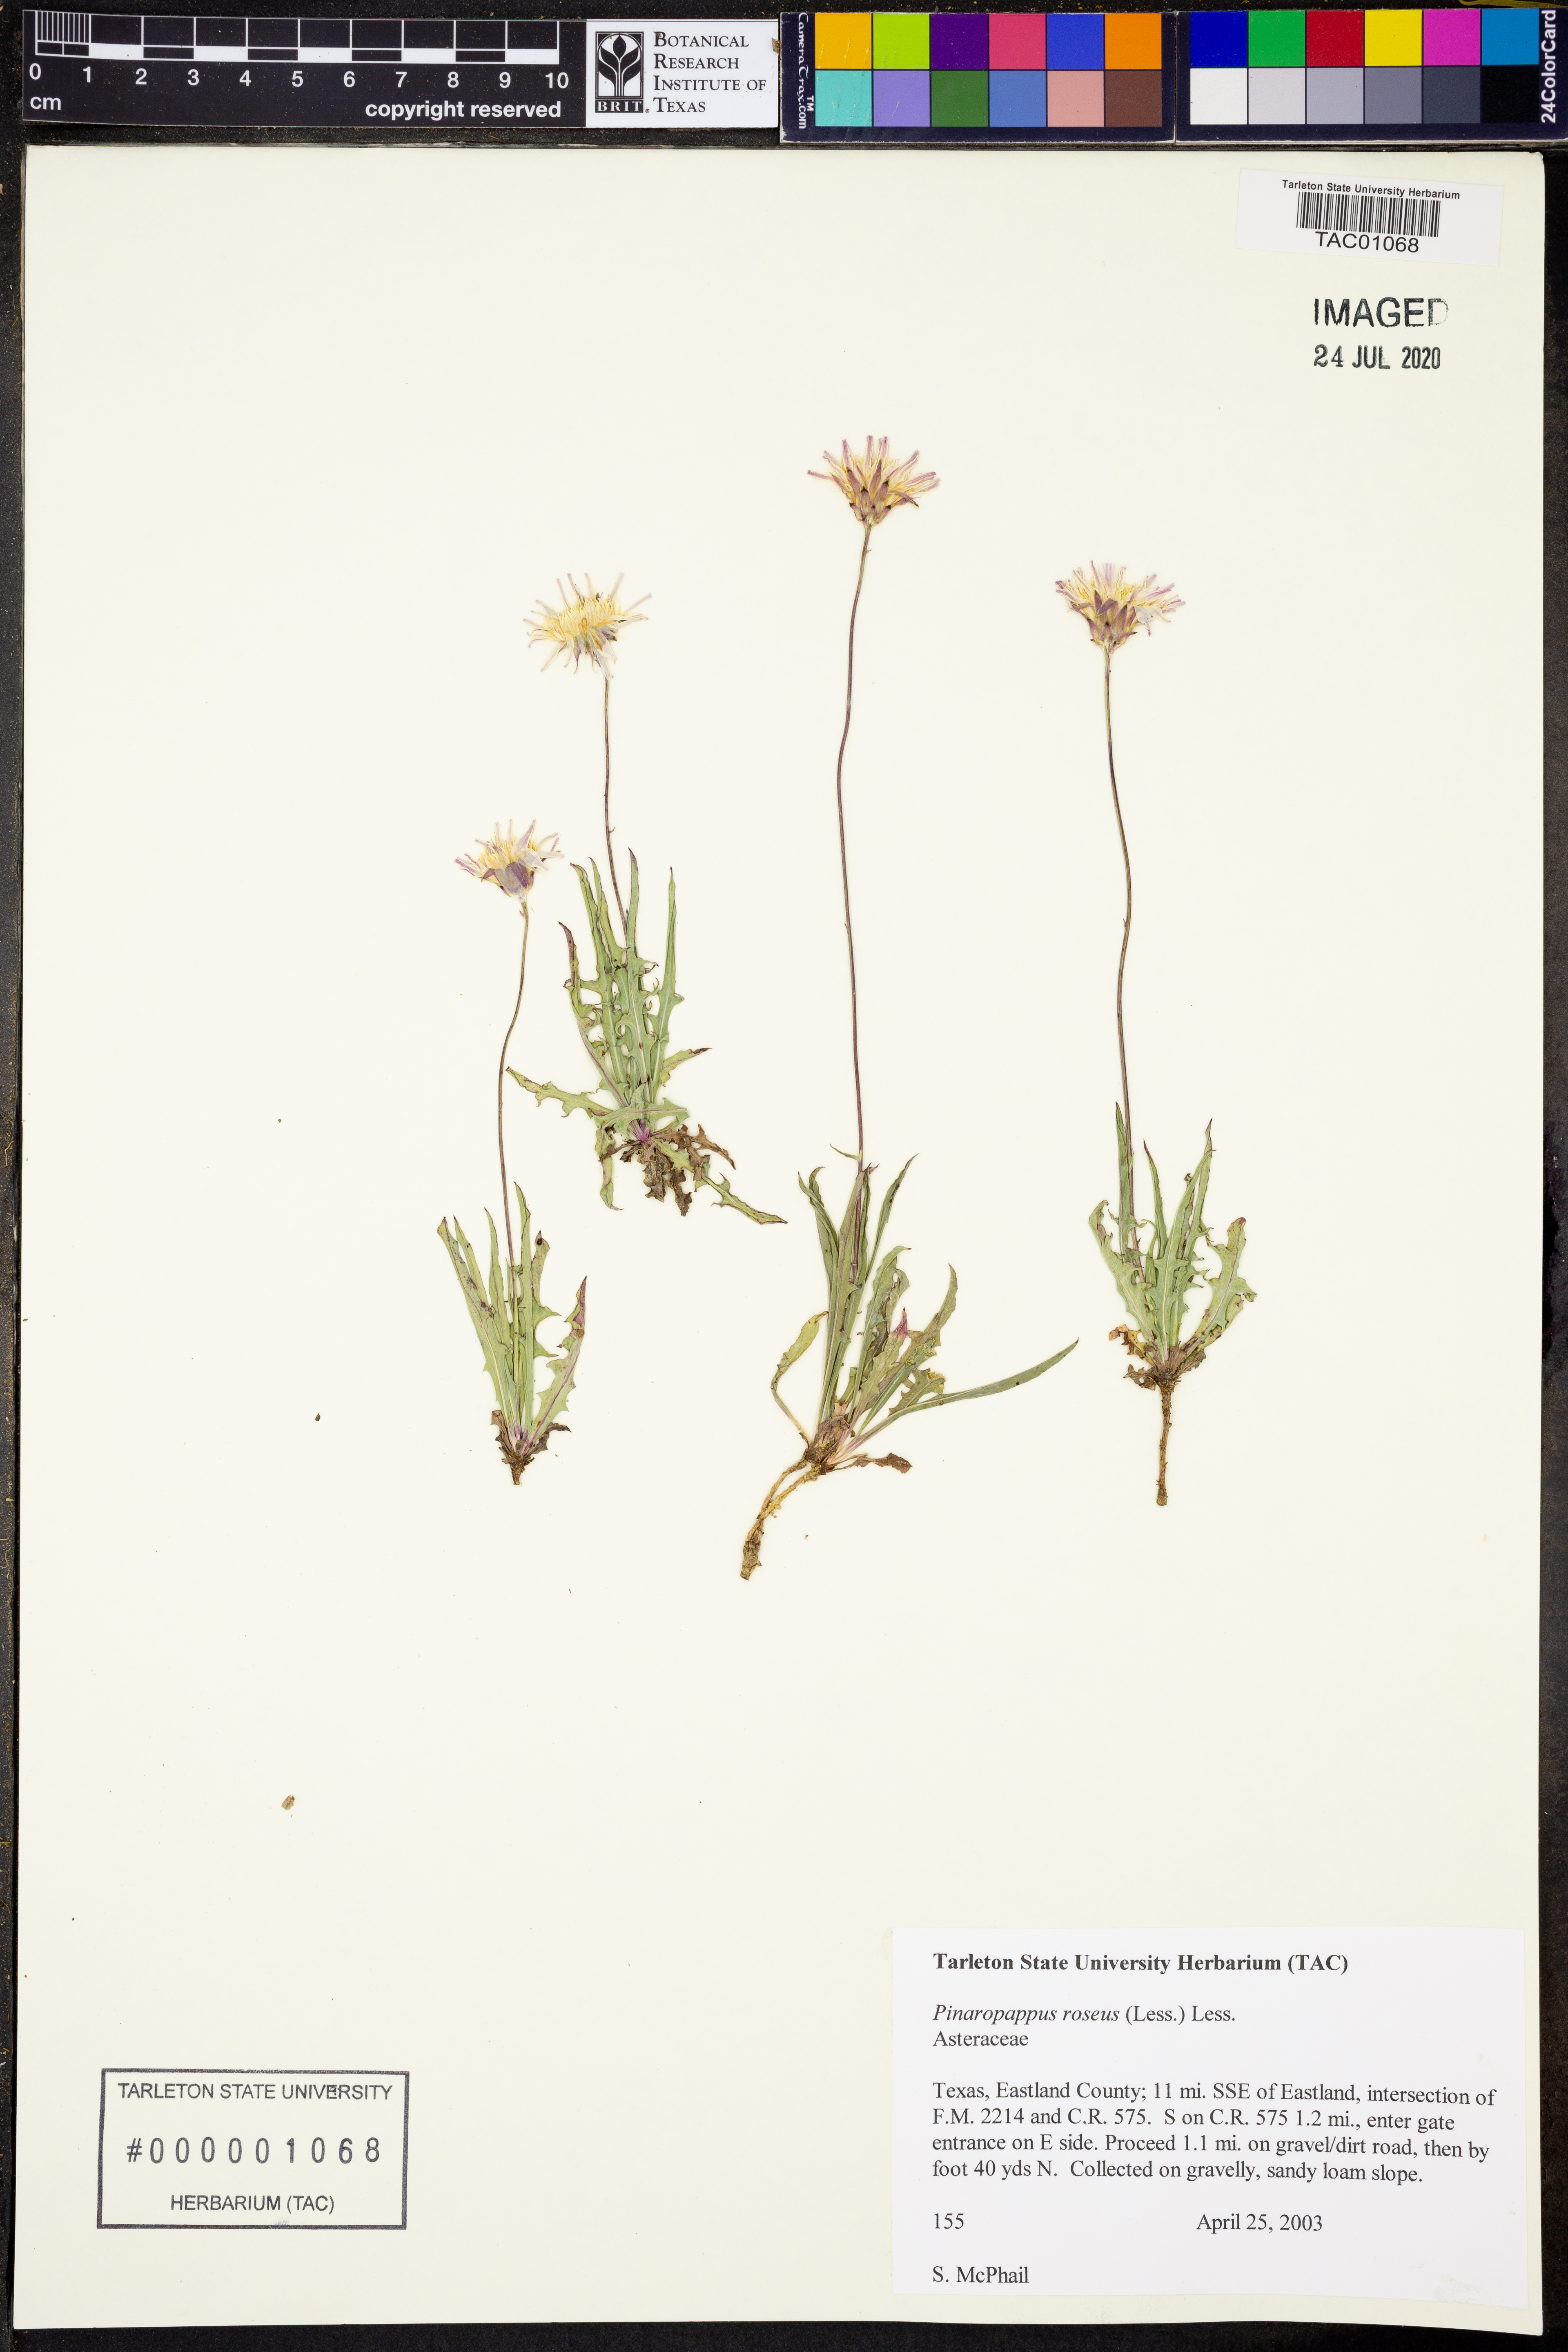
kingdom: Plantae
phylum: Tracheophyta
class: Magnoliopsida
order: Asterales
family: Asteraceae
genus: Pinaropappus
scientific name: Pinaropappus roseus
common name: Rock-lettuce
